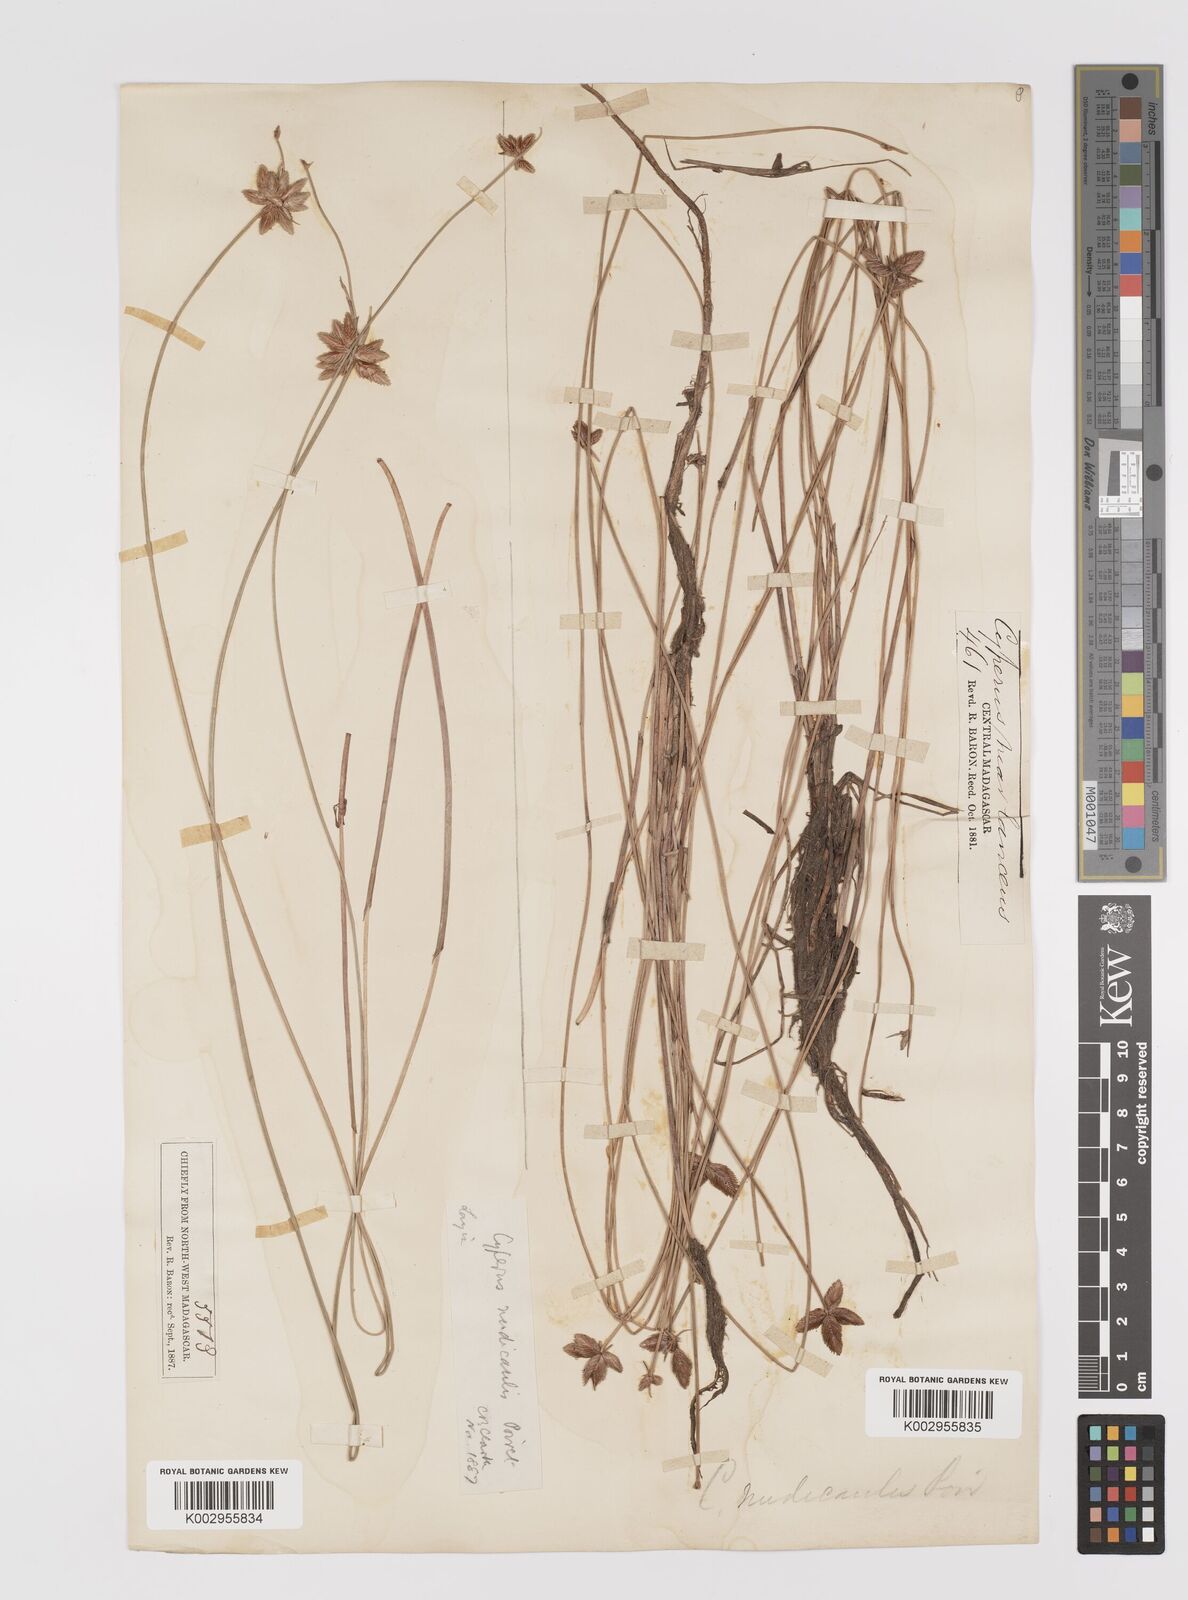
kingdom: Plantae
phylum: Tracheophyta
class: Liliopsida
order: Poales
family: Cyperaceae
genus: Cyperus
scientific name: Cyperus compressus
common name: Poorland flatsedge
